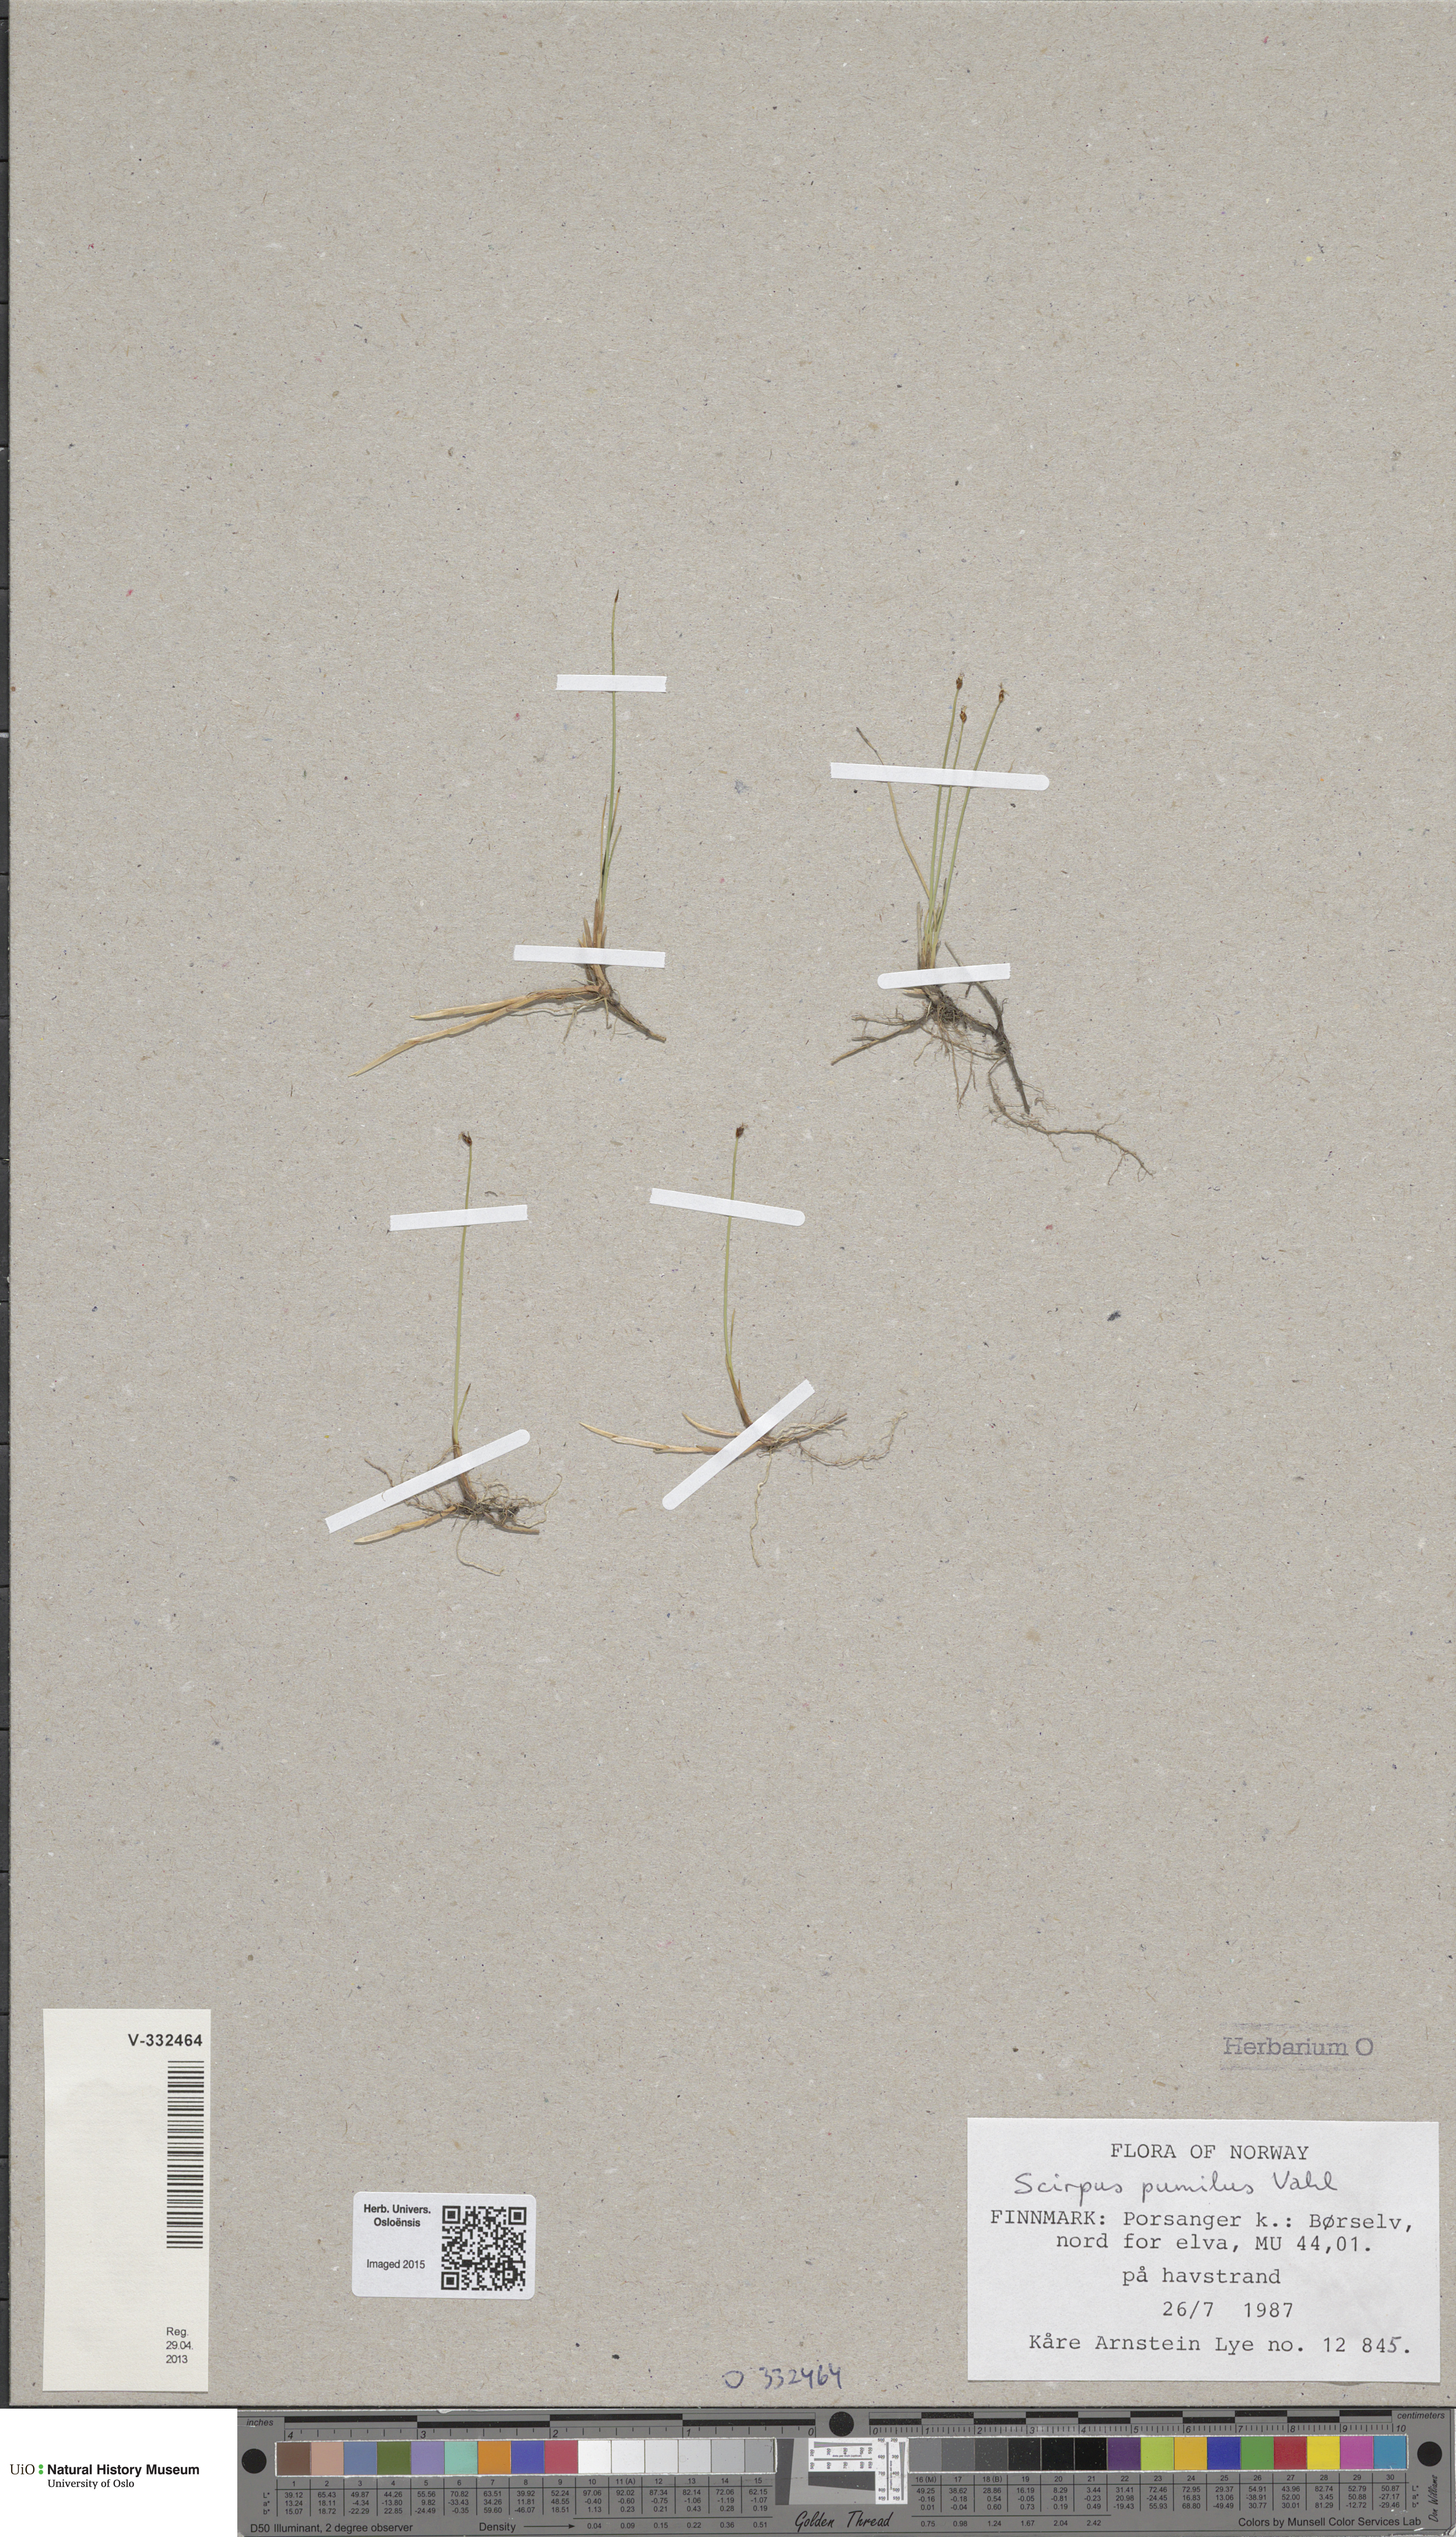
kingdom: Plantae
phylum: Tracheophyta
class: Liliopsida
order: Poales
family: Cyperaceae
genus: Trichophorum
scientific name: Trichophorum pumilum
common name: Rolland's bulrush
